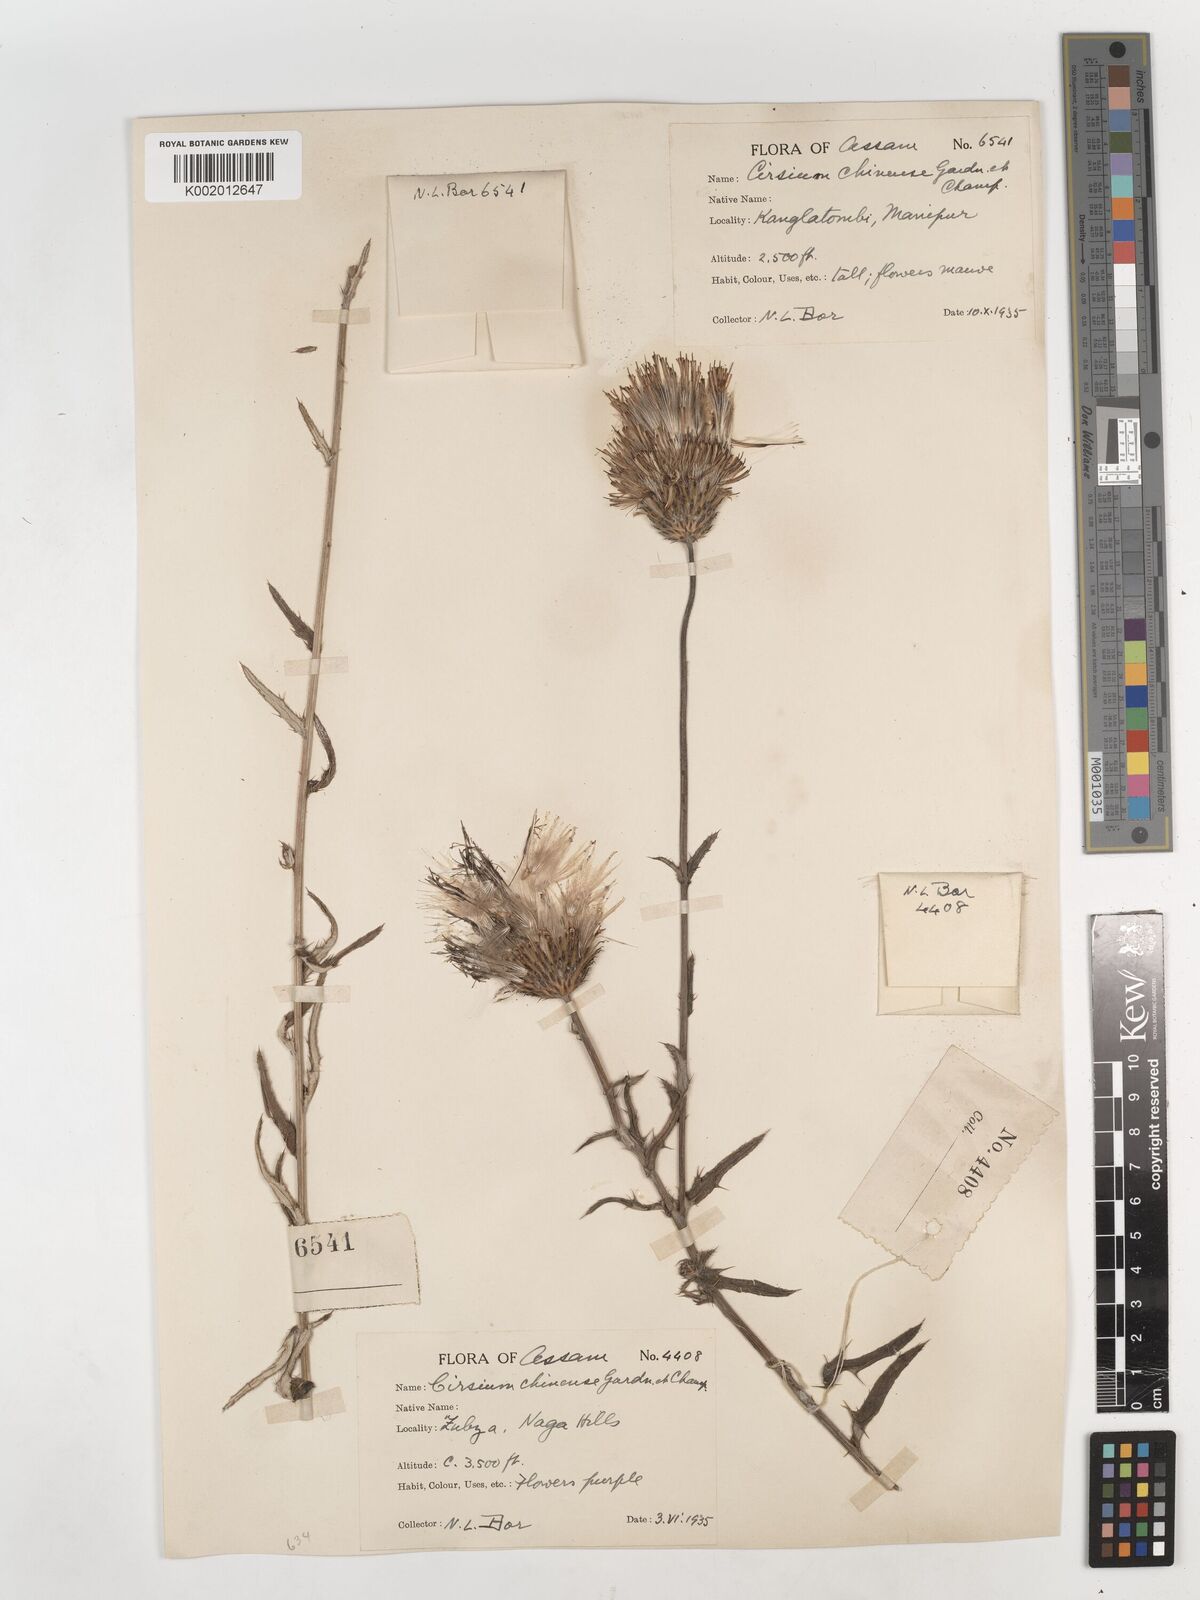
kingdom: Plantae
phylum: Tracheophyta
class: Magnoliopsida
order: Asterales
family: Asteraceae
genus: Cirsium
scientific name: Cirsium chinense
